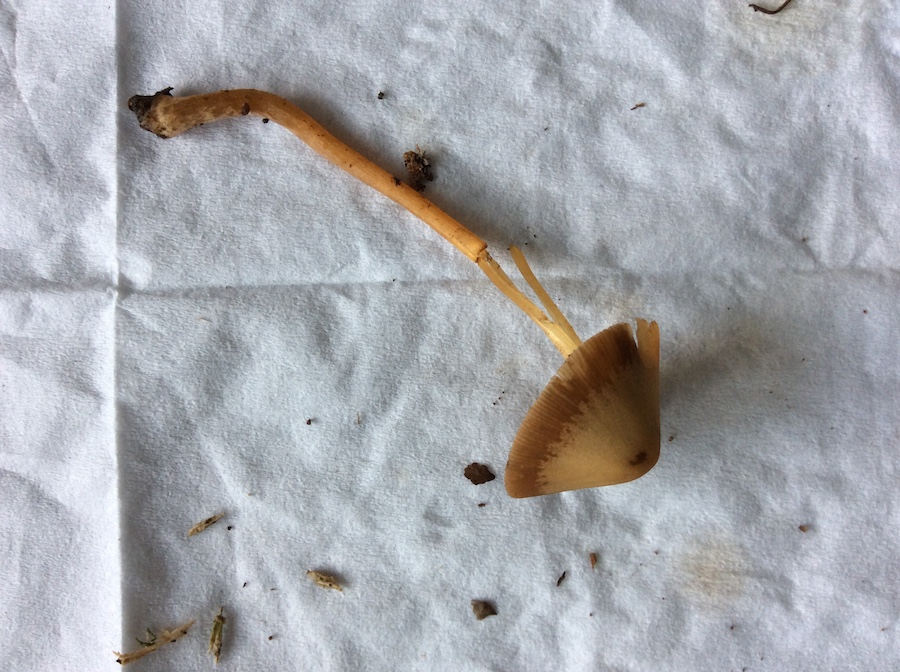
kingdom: Fungi
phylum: Basidiomycota
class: Agaricomycetes
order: Agaricales
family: Bolbitiaceae
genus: Conocybe
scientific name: Conocybe
